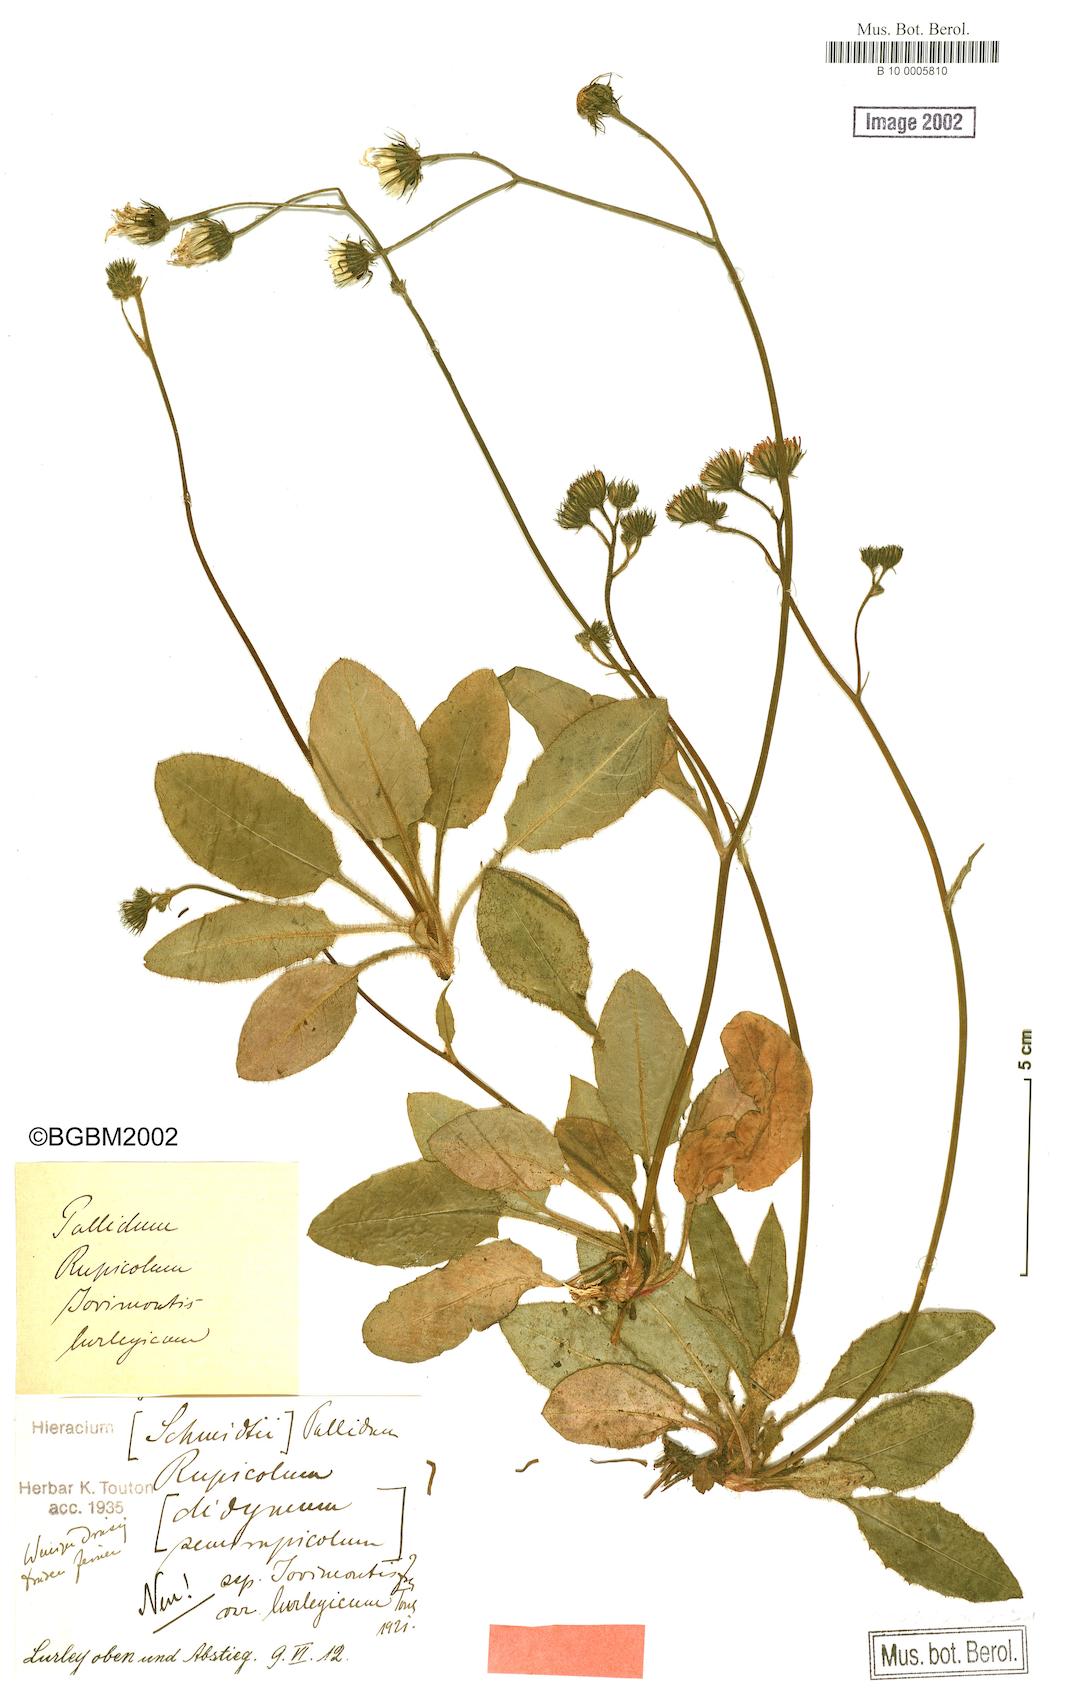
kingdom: Plantae
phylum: Tracheophyta
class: Magnoliopsida
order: Asterales
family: Asteraceae
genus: Hieracium
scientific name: Hieracium pallidum
